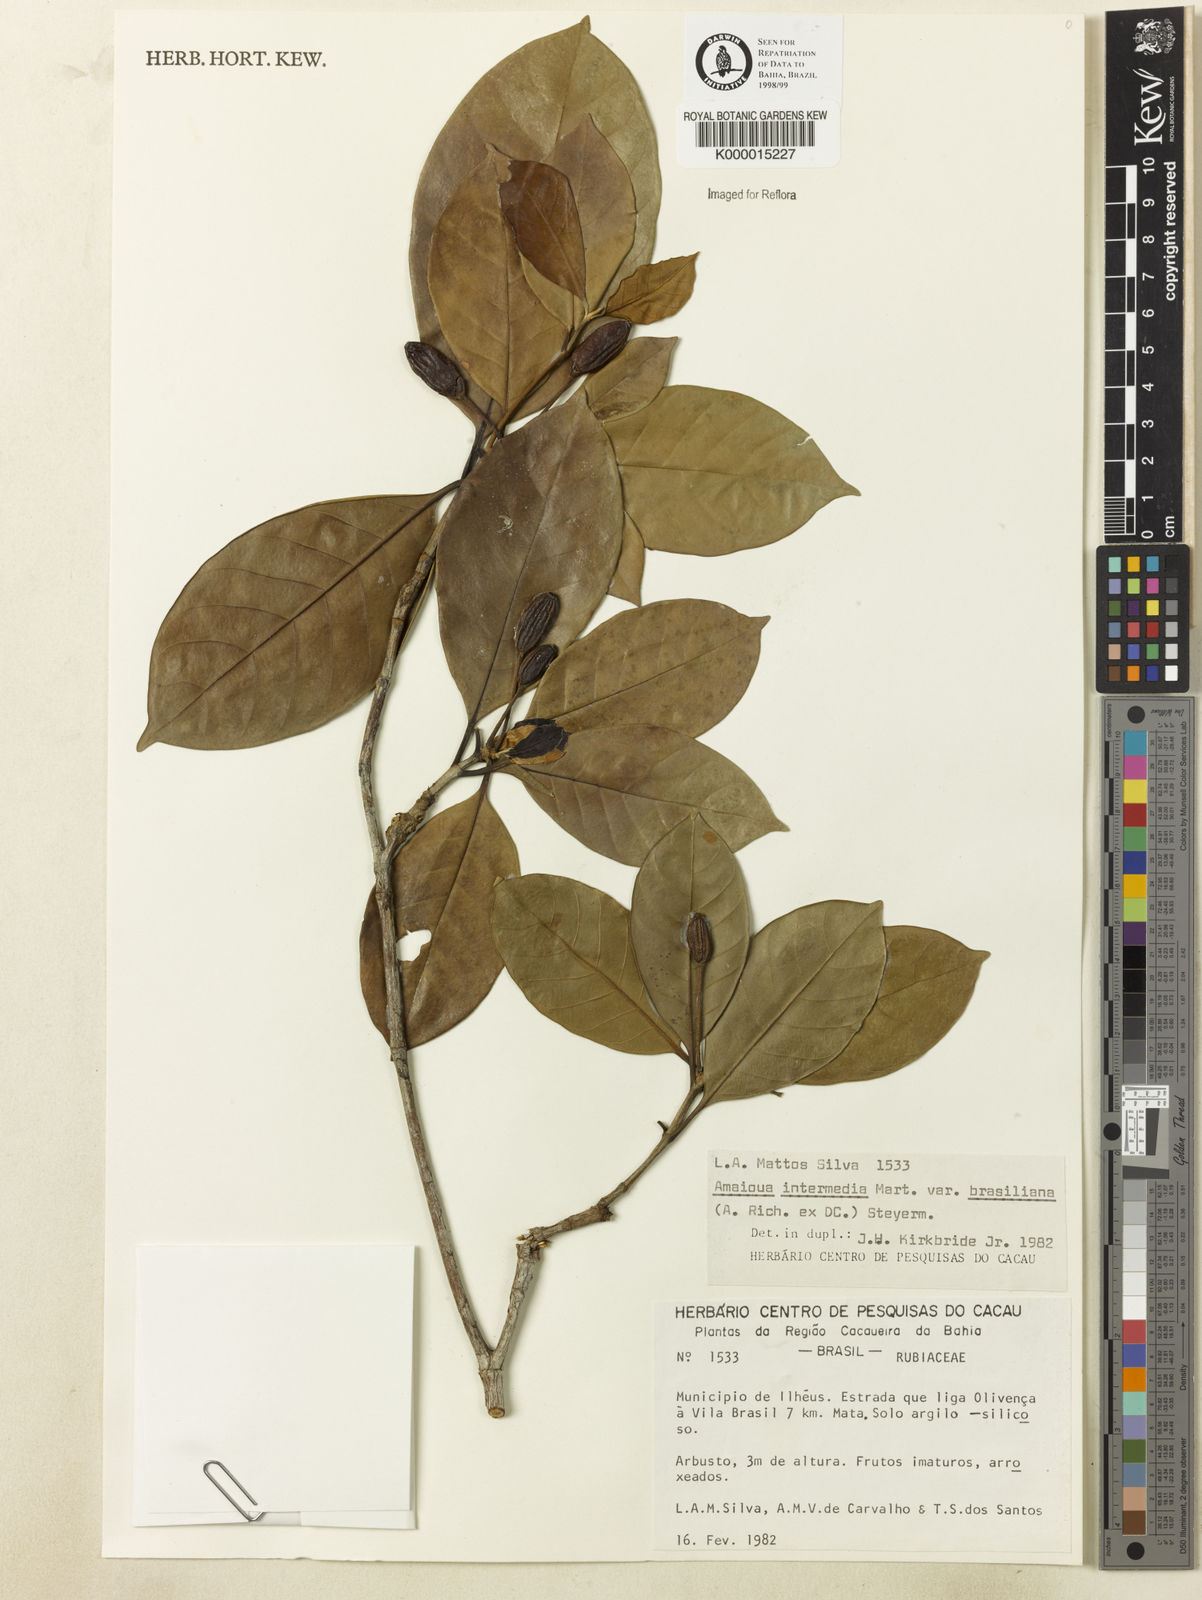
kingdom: Plantae
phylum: Tracheophyta
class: Magnoliopsida
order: Gentianales
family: Rubiaceae
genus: Amaioua
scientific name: Amaioua intermedia
